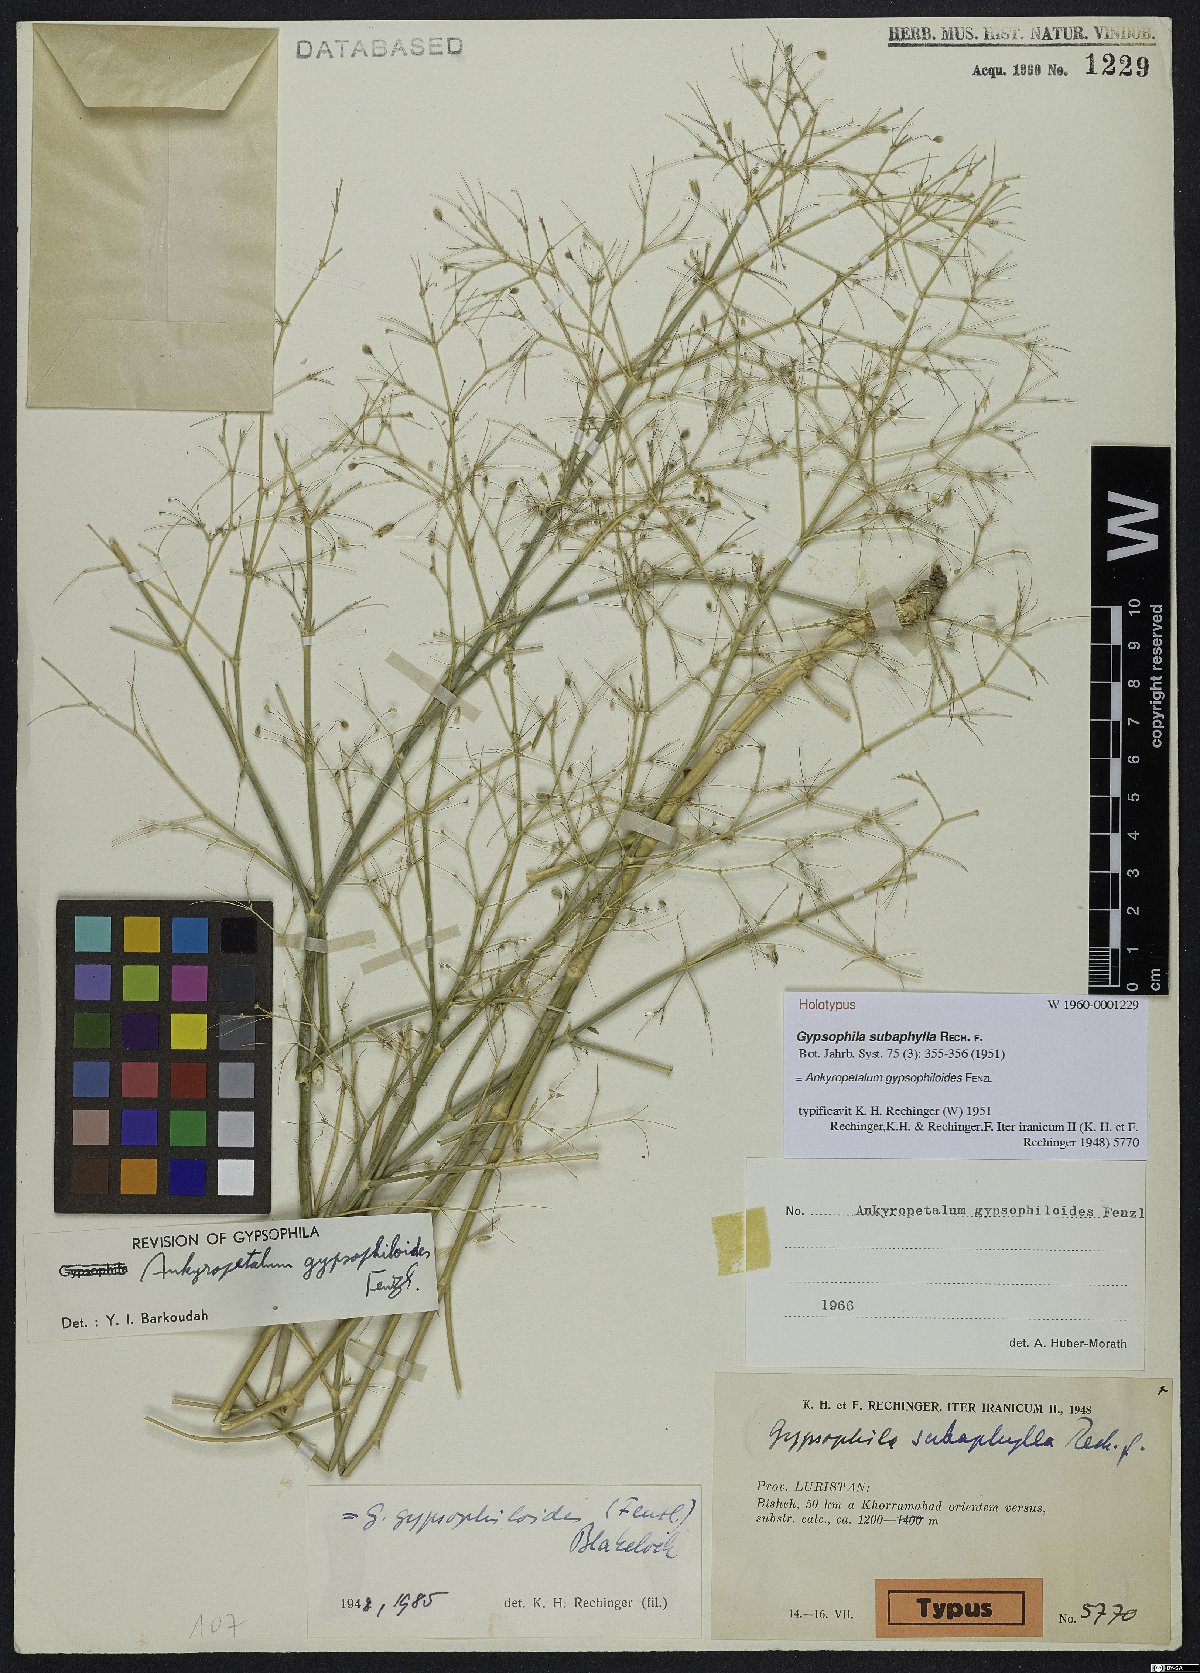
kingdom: Plantae
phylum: Tracheophyta
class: Magnoliopsida
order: Caryophyllales
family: Caryophyllaceae
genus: Mesostemma
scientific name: Mesostemma gypsophiloides
